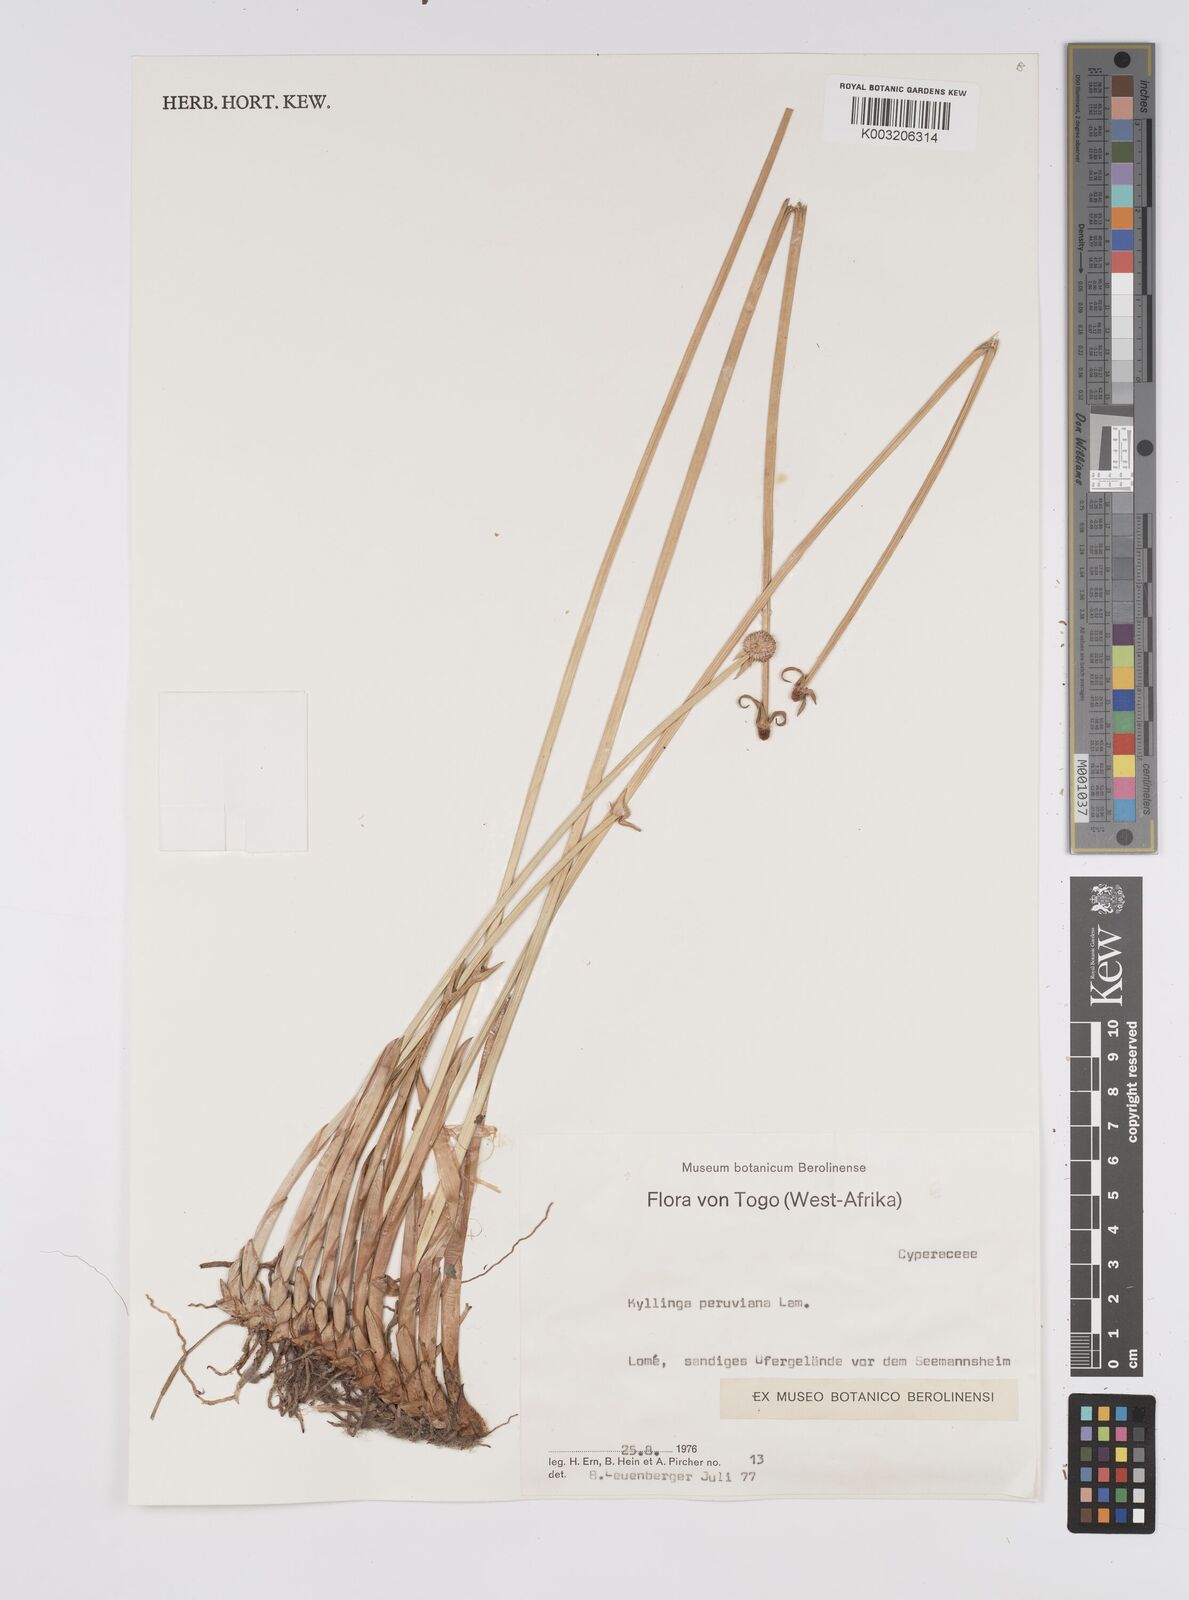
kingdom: Plantae
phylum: Tracheophyta
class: Liliopsida
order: Poales
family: Cyperaceae
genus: Cyperus
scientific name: Cyperus obtusatus
